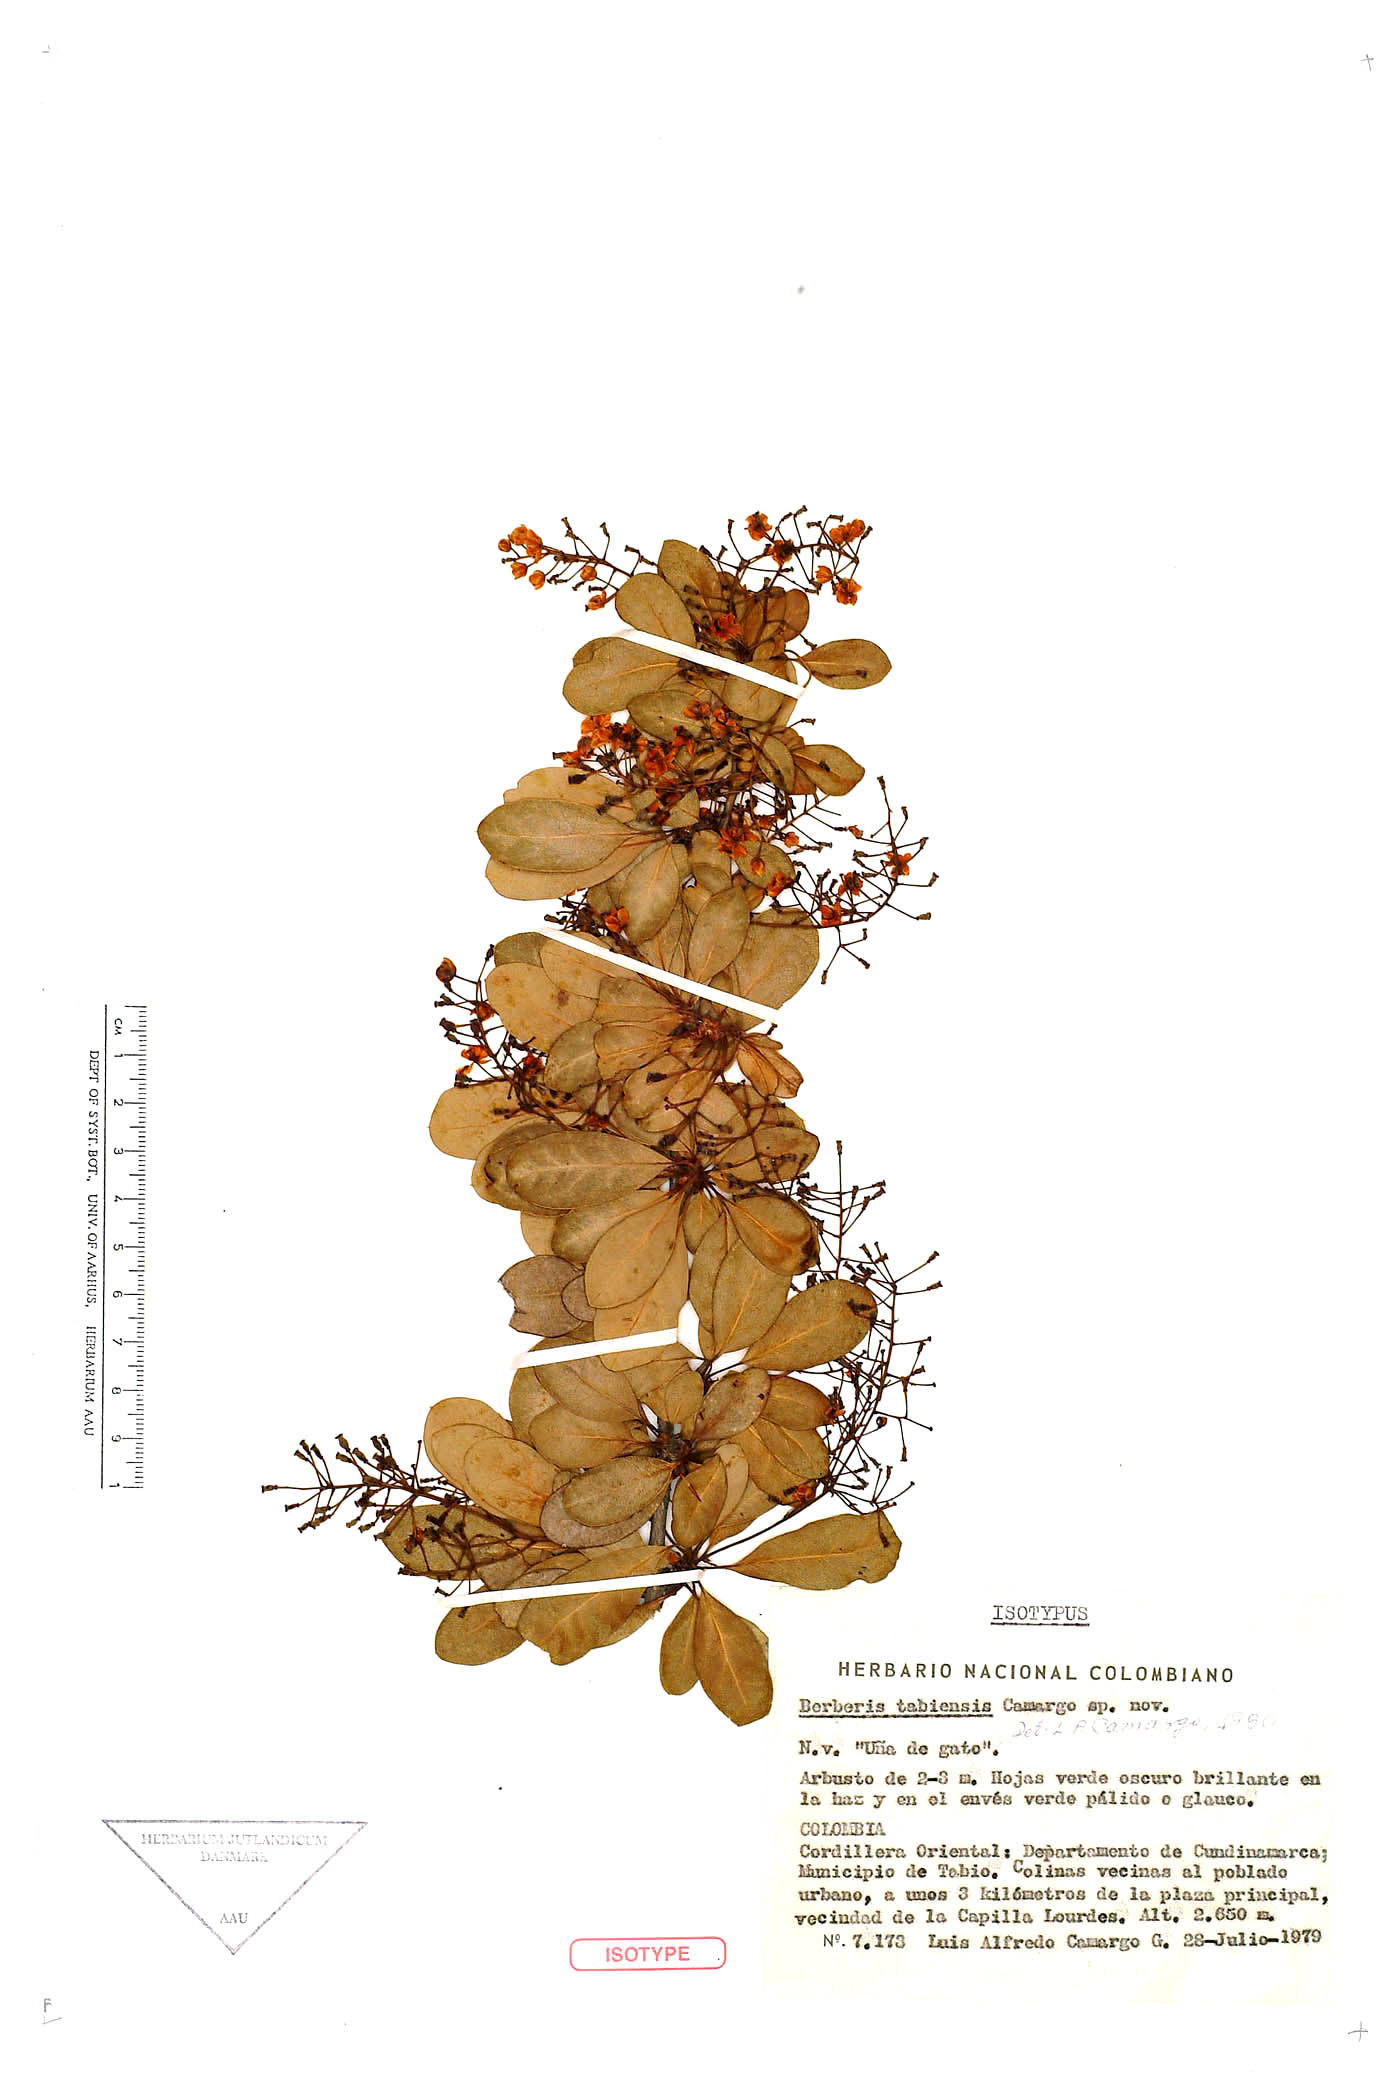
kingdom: Plantae
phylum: Tracheophyta
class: Magnoliopsida
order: Ranunculales
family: Berberidaceae
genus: Berberis
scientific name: Berberis tabiensis
